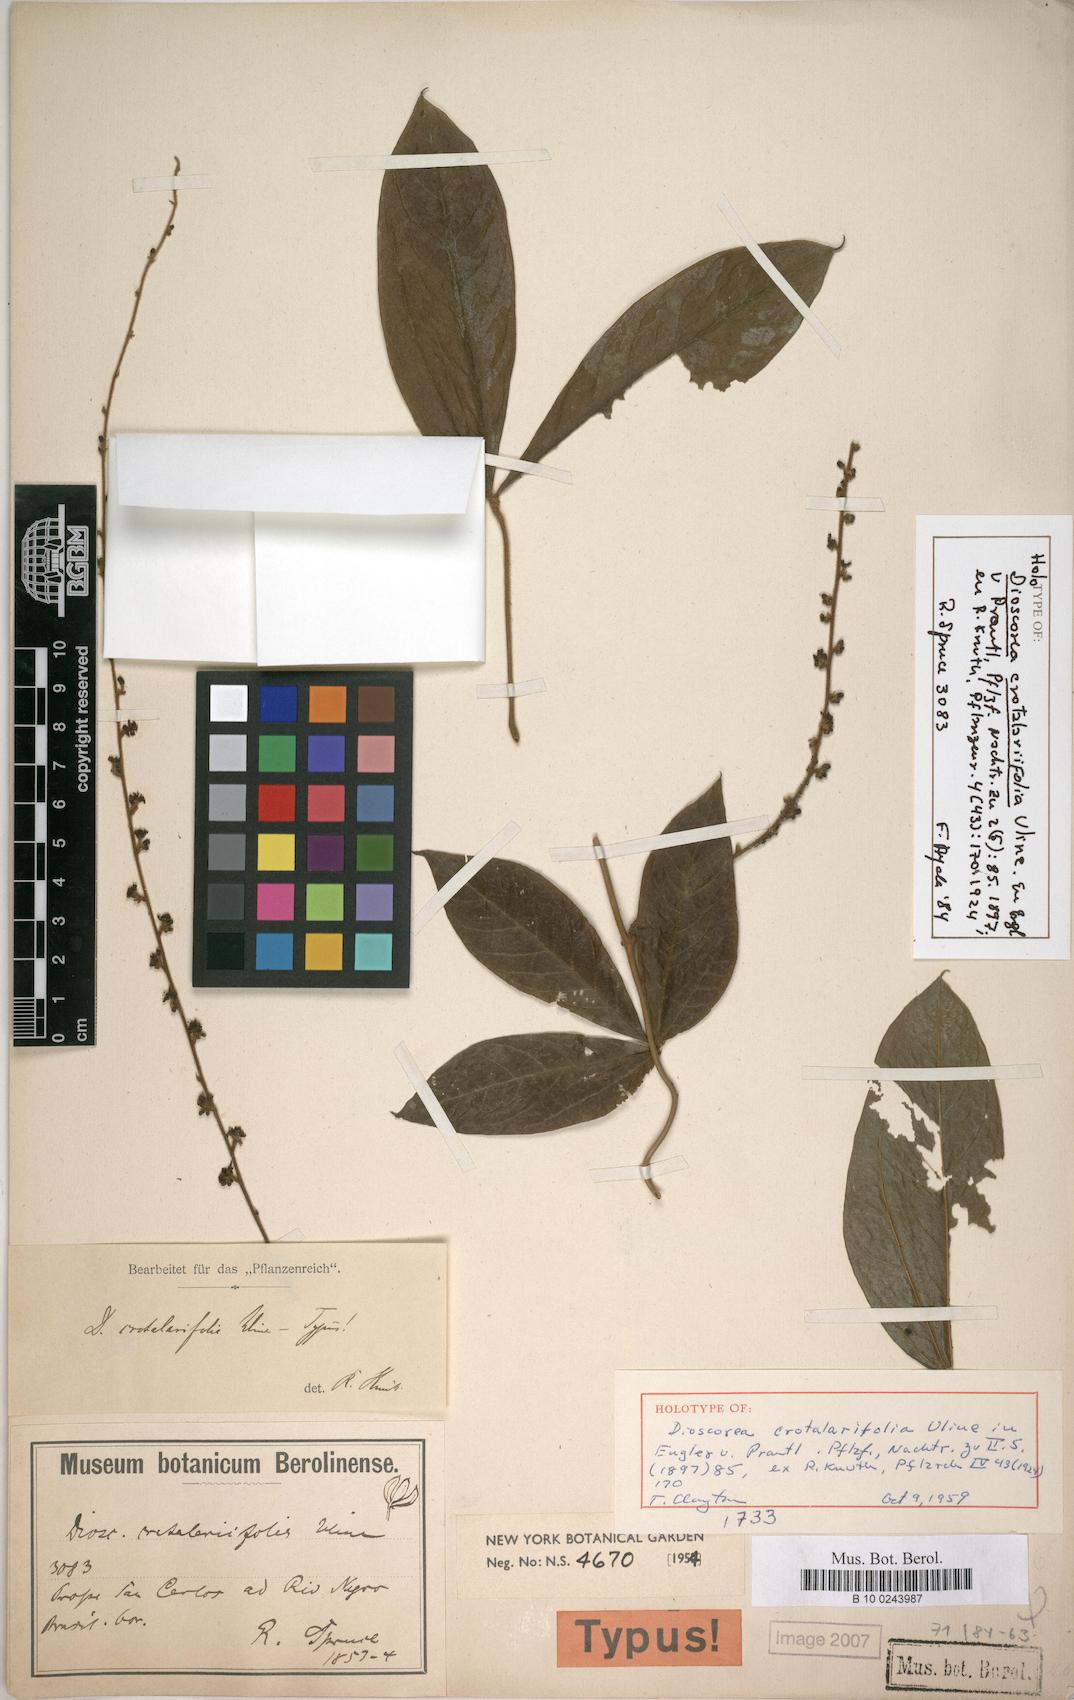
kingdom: Plantae
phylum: Tracheophyta
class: Liliopsida
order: Dioscoreales
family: Dioscoreaceae
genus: Dioscorea
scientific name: Dioscorea crotalariifolia
